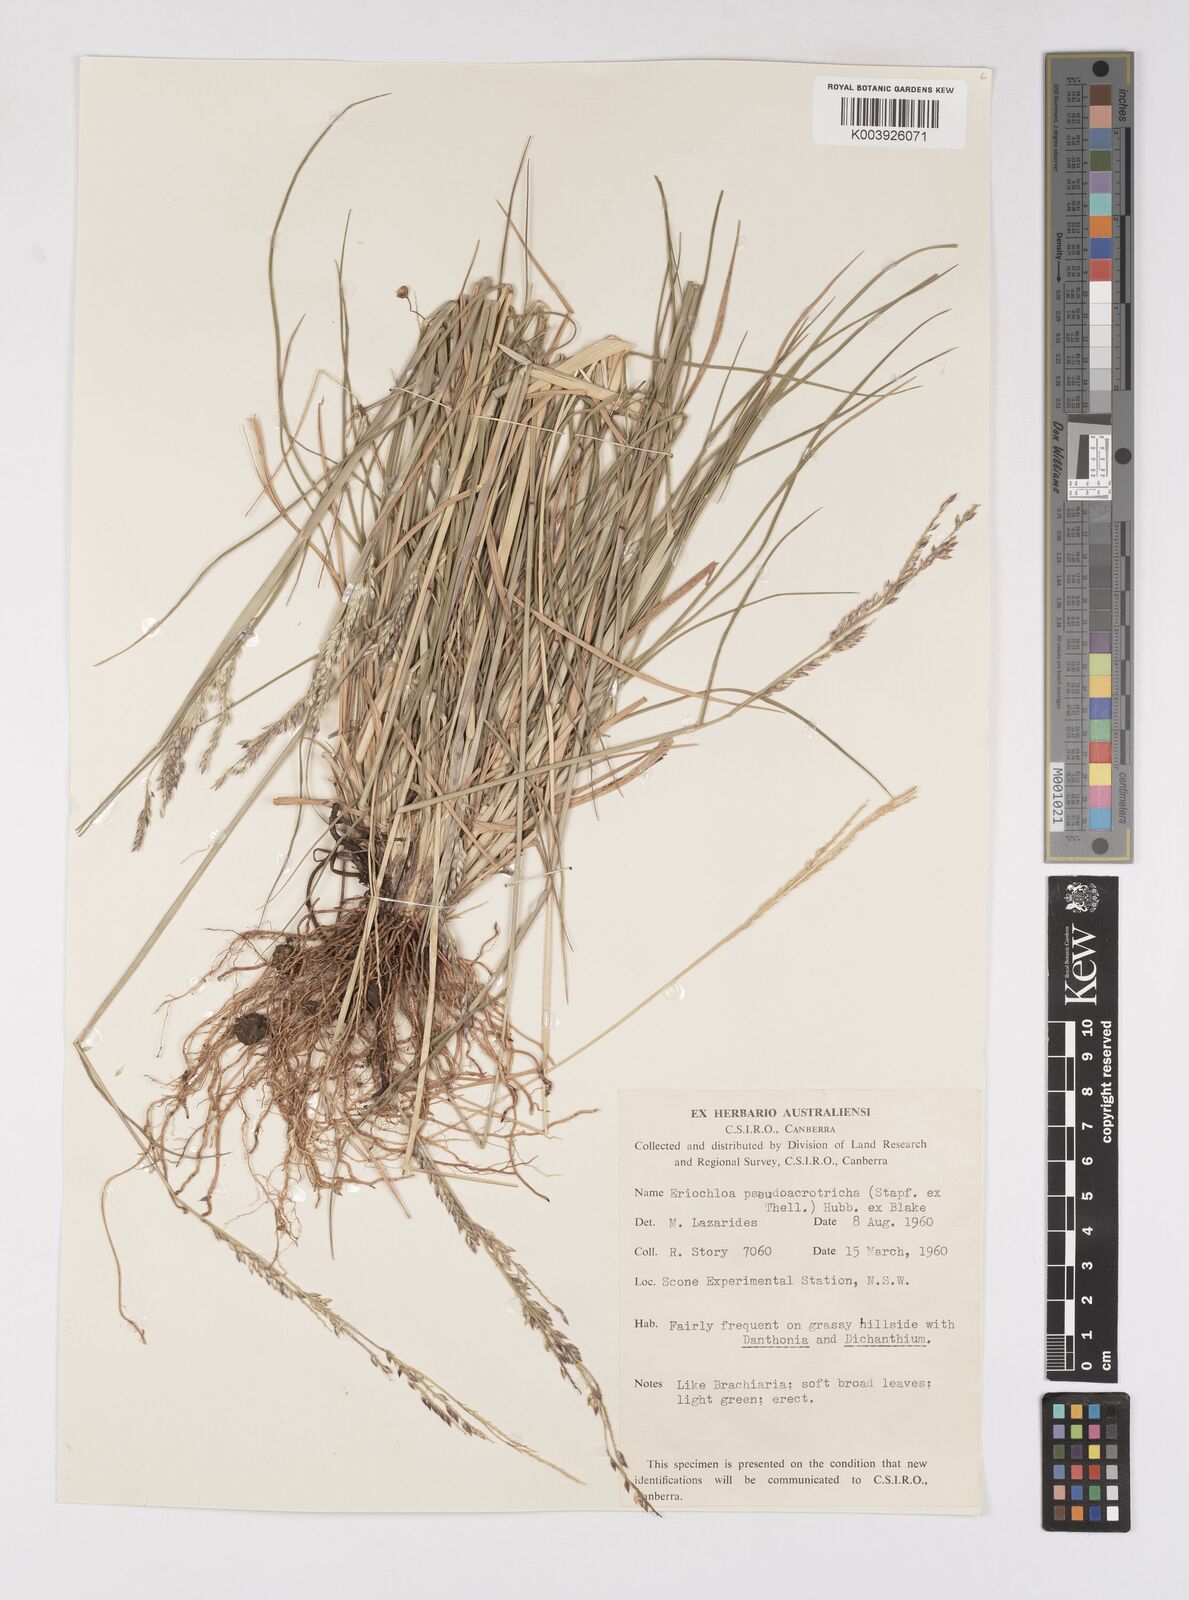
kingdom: Plantae
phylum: Tracheophyta
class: Liliopsida
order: Poales
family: Poaceae
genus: Eriochloa
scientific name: Eriochloa pseudoacrotricha
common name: Perennial cup-grass
